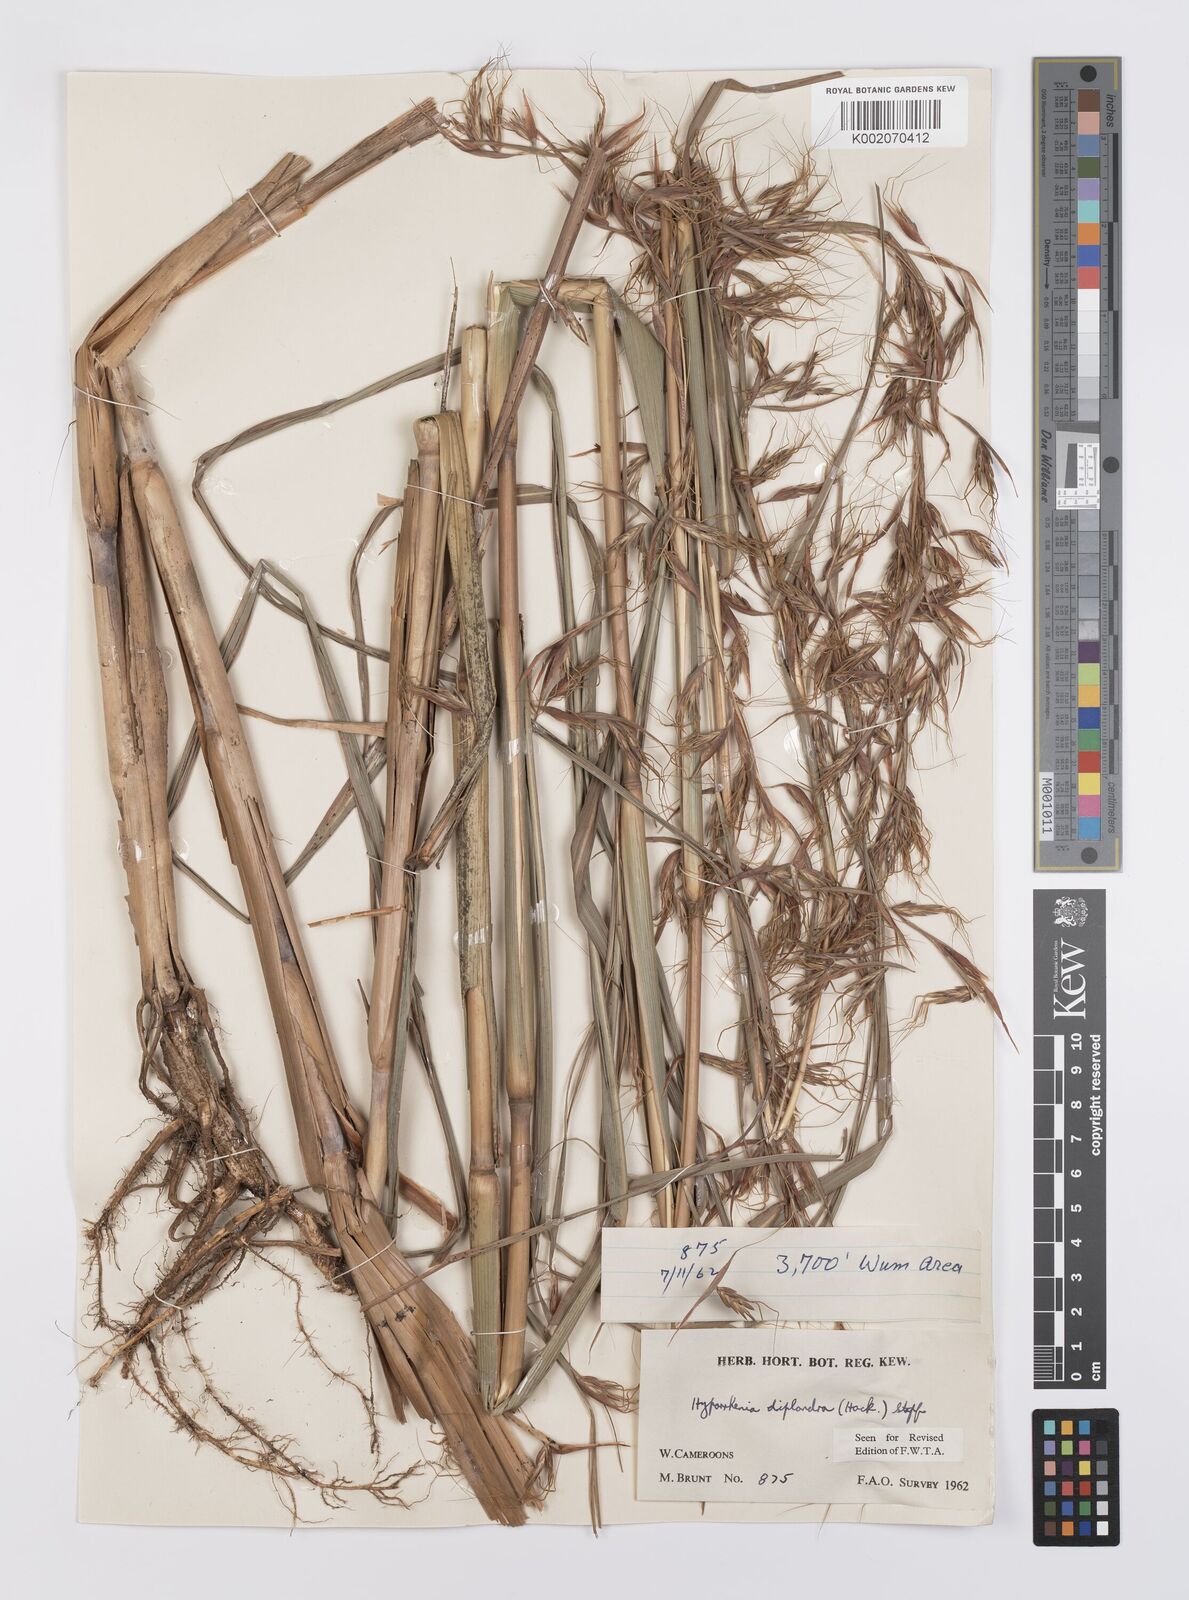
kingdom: Plantae
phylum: Tracheophyta
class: Liliopsida
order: Poales
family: Poaceae
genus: Hyparrhenia
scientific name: Hyparrhenia diplandra
